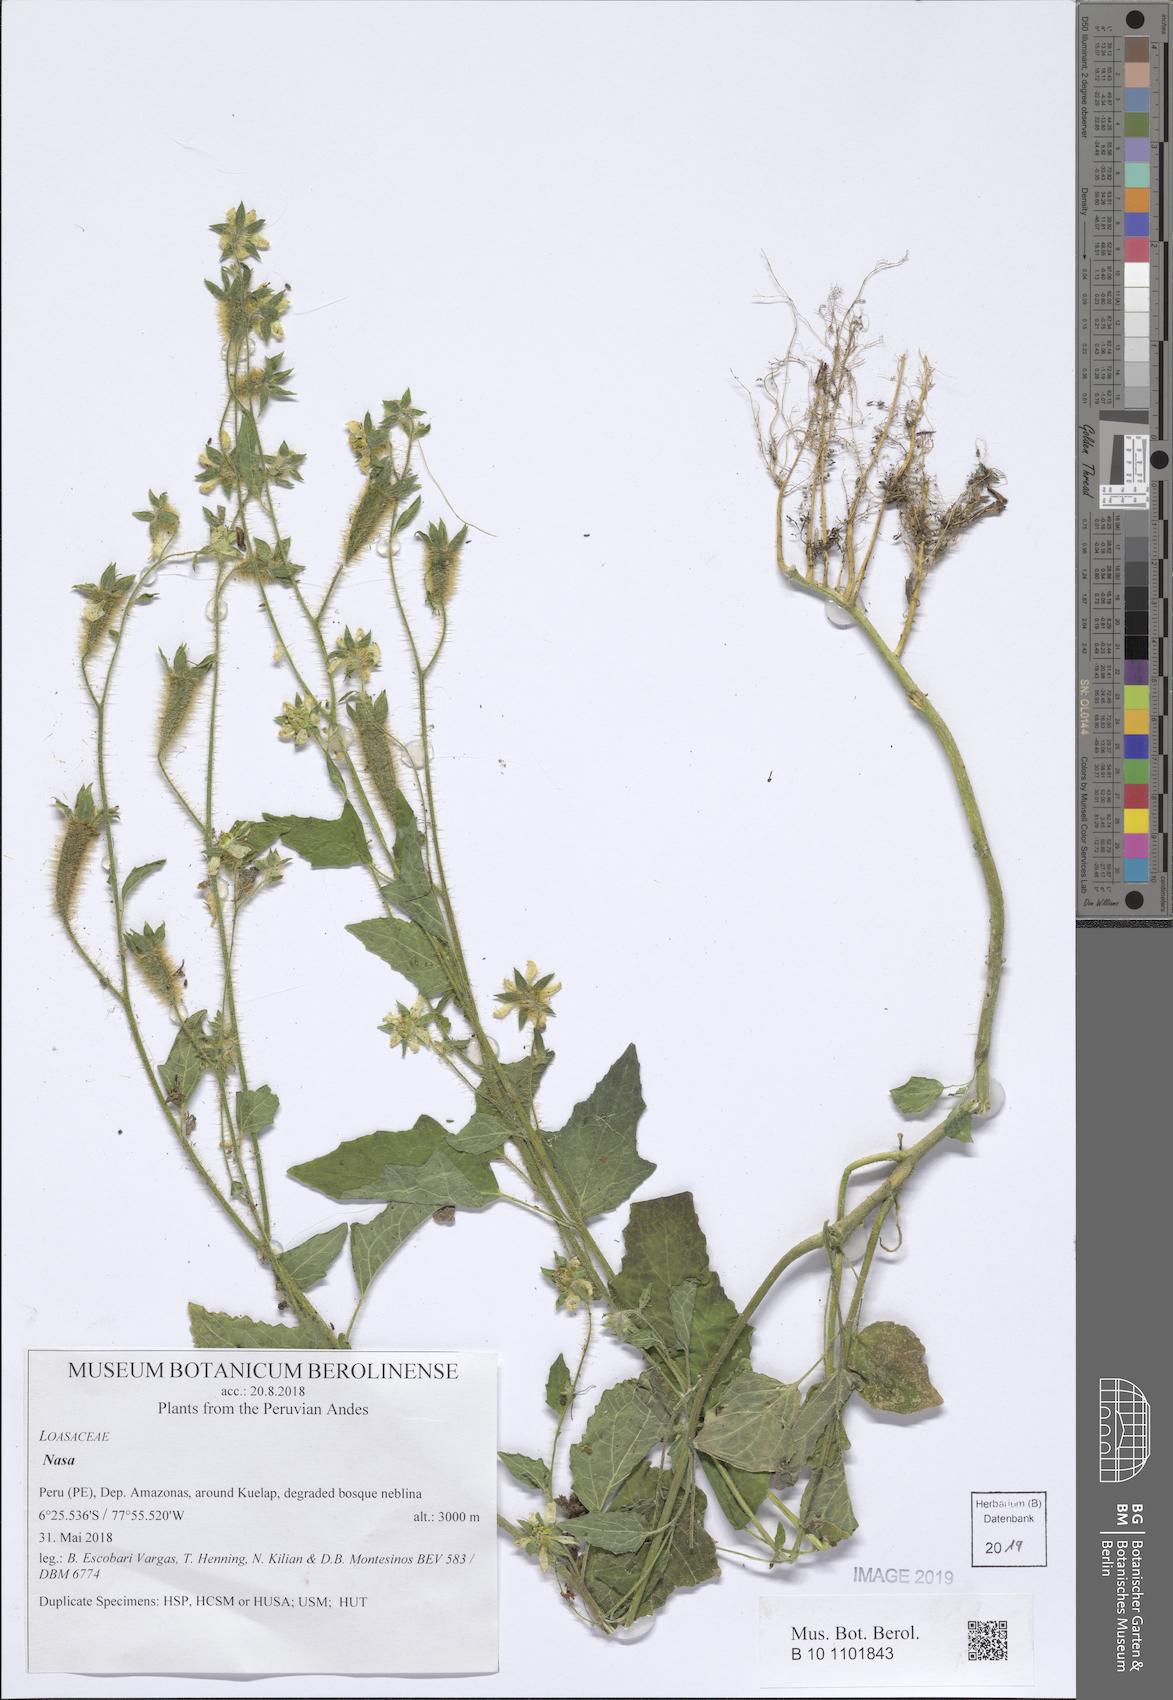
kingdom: Plantae
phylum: Tracheophyta
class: Magnoliopsida
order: Cornales
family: Loasaceae
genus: Nasa
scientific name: Nasa kuelapensis
